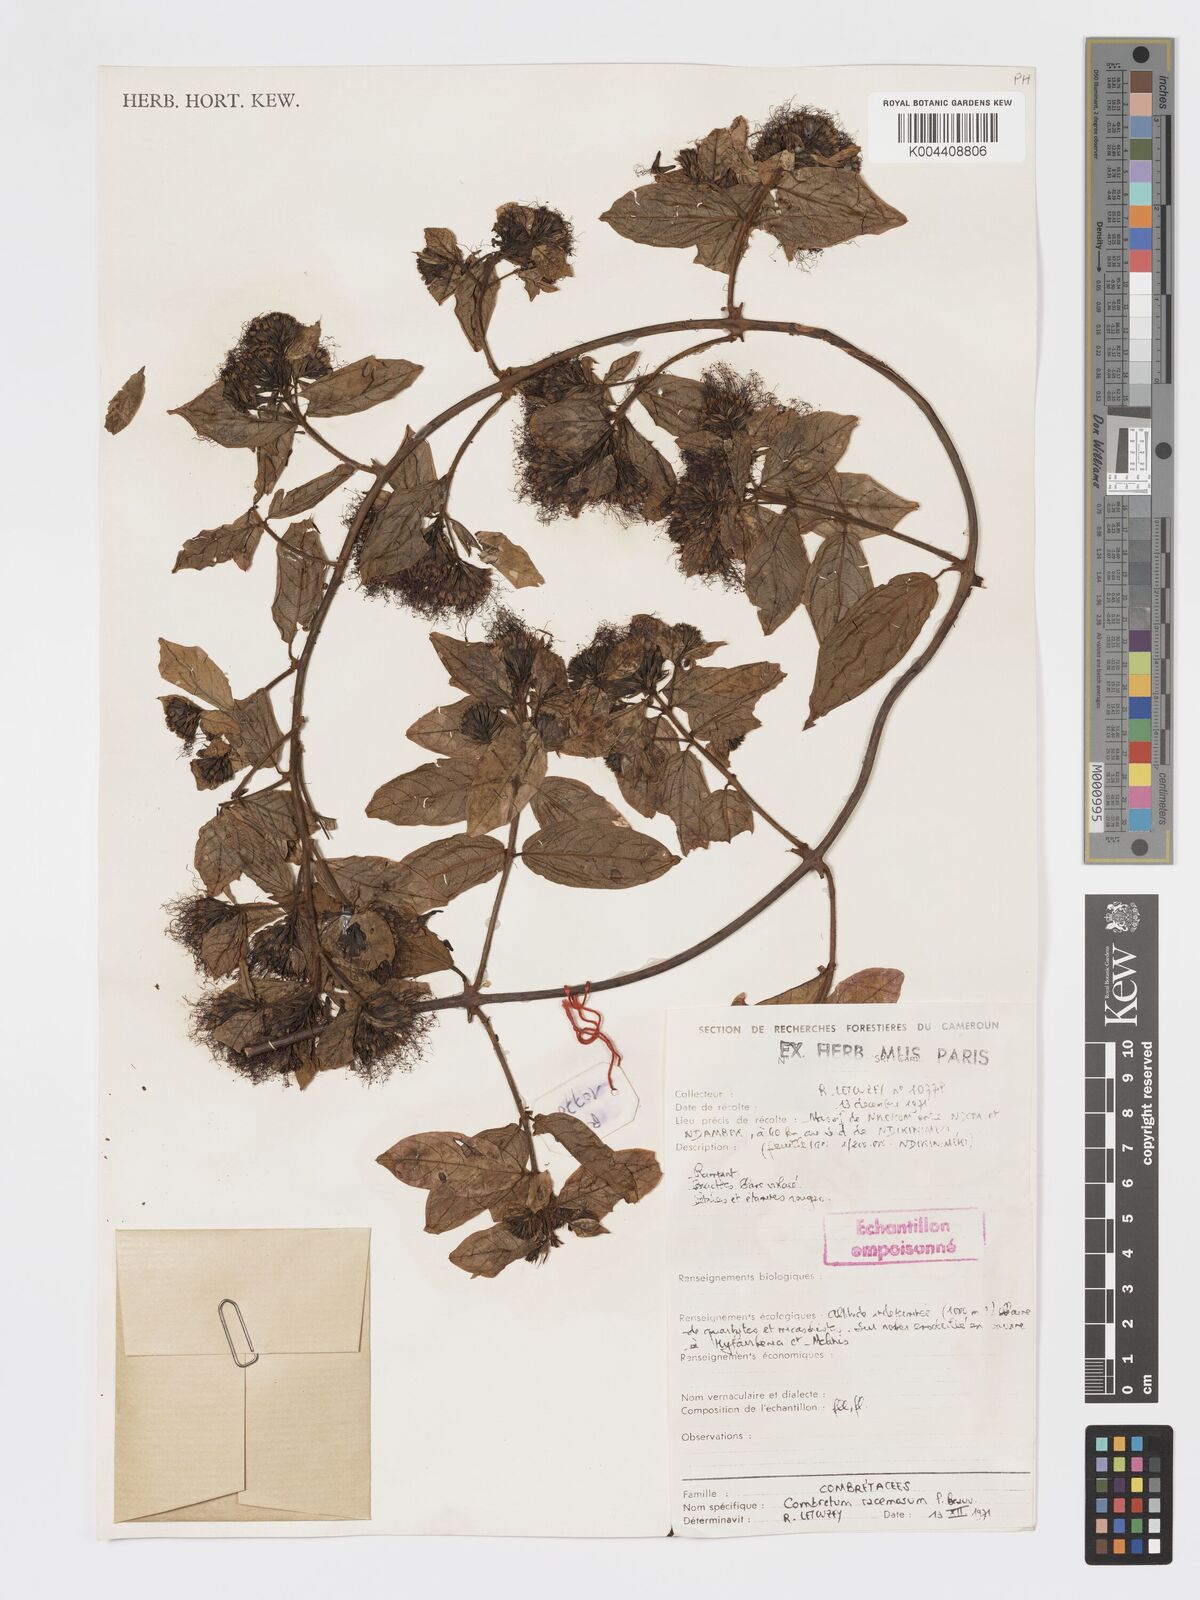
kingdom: Plantae
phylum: Tracheophyta
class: Magnoliopsida
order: Myrtales
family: Combretaceae
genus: Combretum
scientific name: Combretum racemosum
